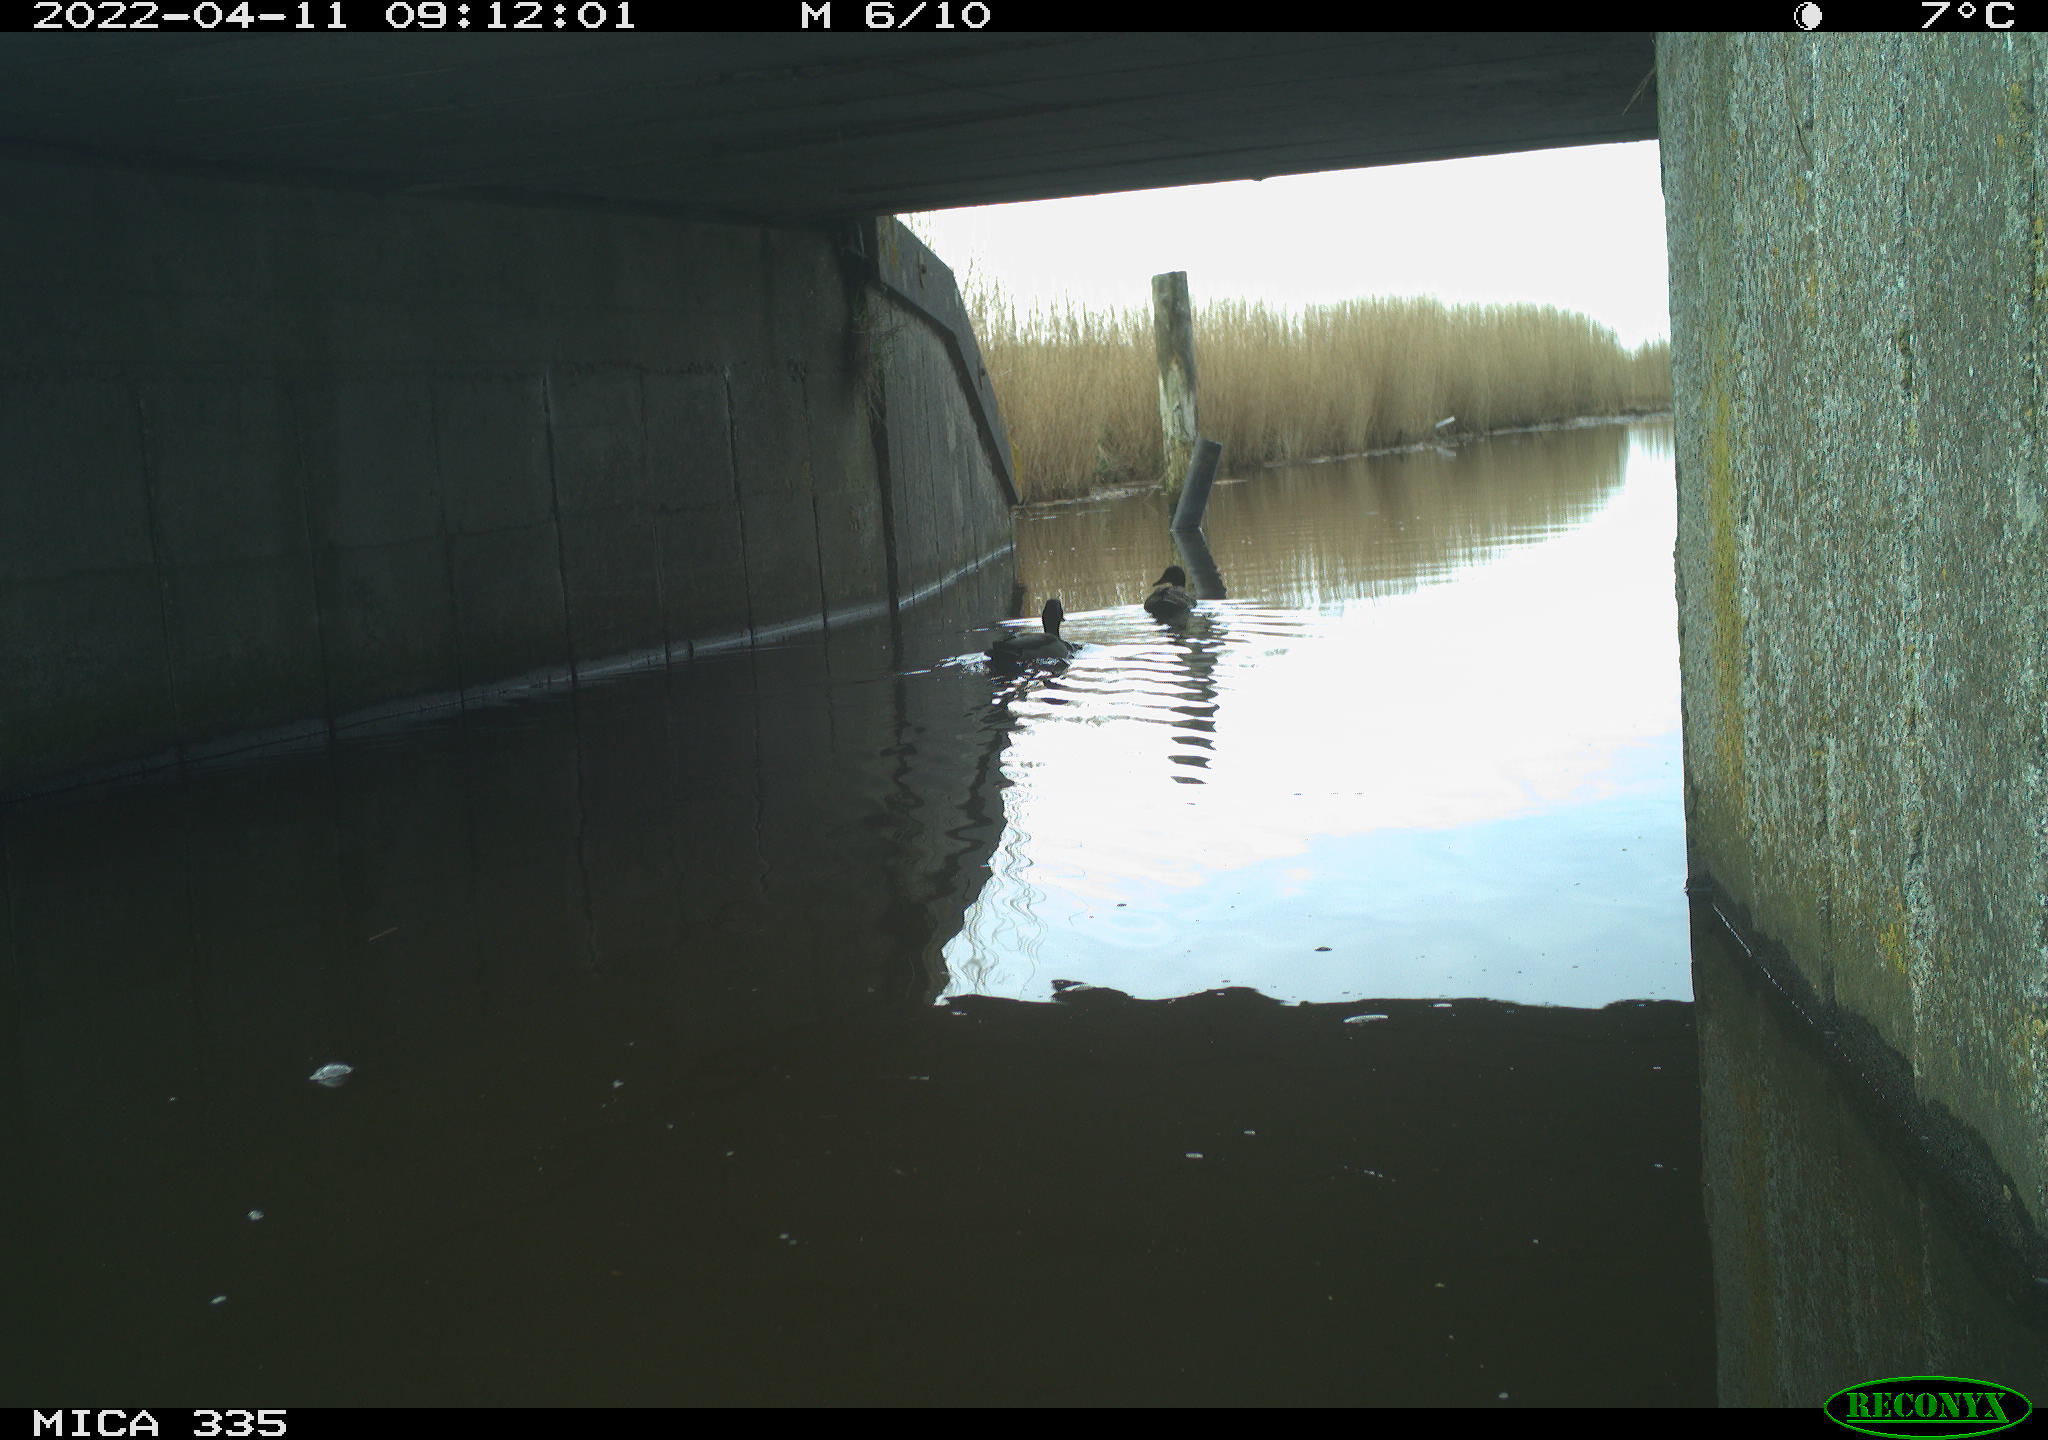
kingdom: Animalia
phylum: Chordata
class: Aves
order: Anseriformes
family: Anatidae
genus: Anas
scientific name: Anas platyrhynchos
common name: Mallard
